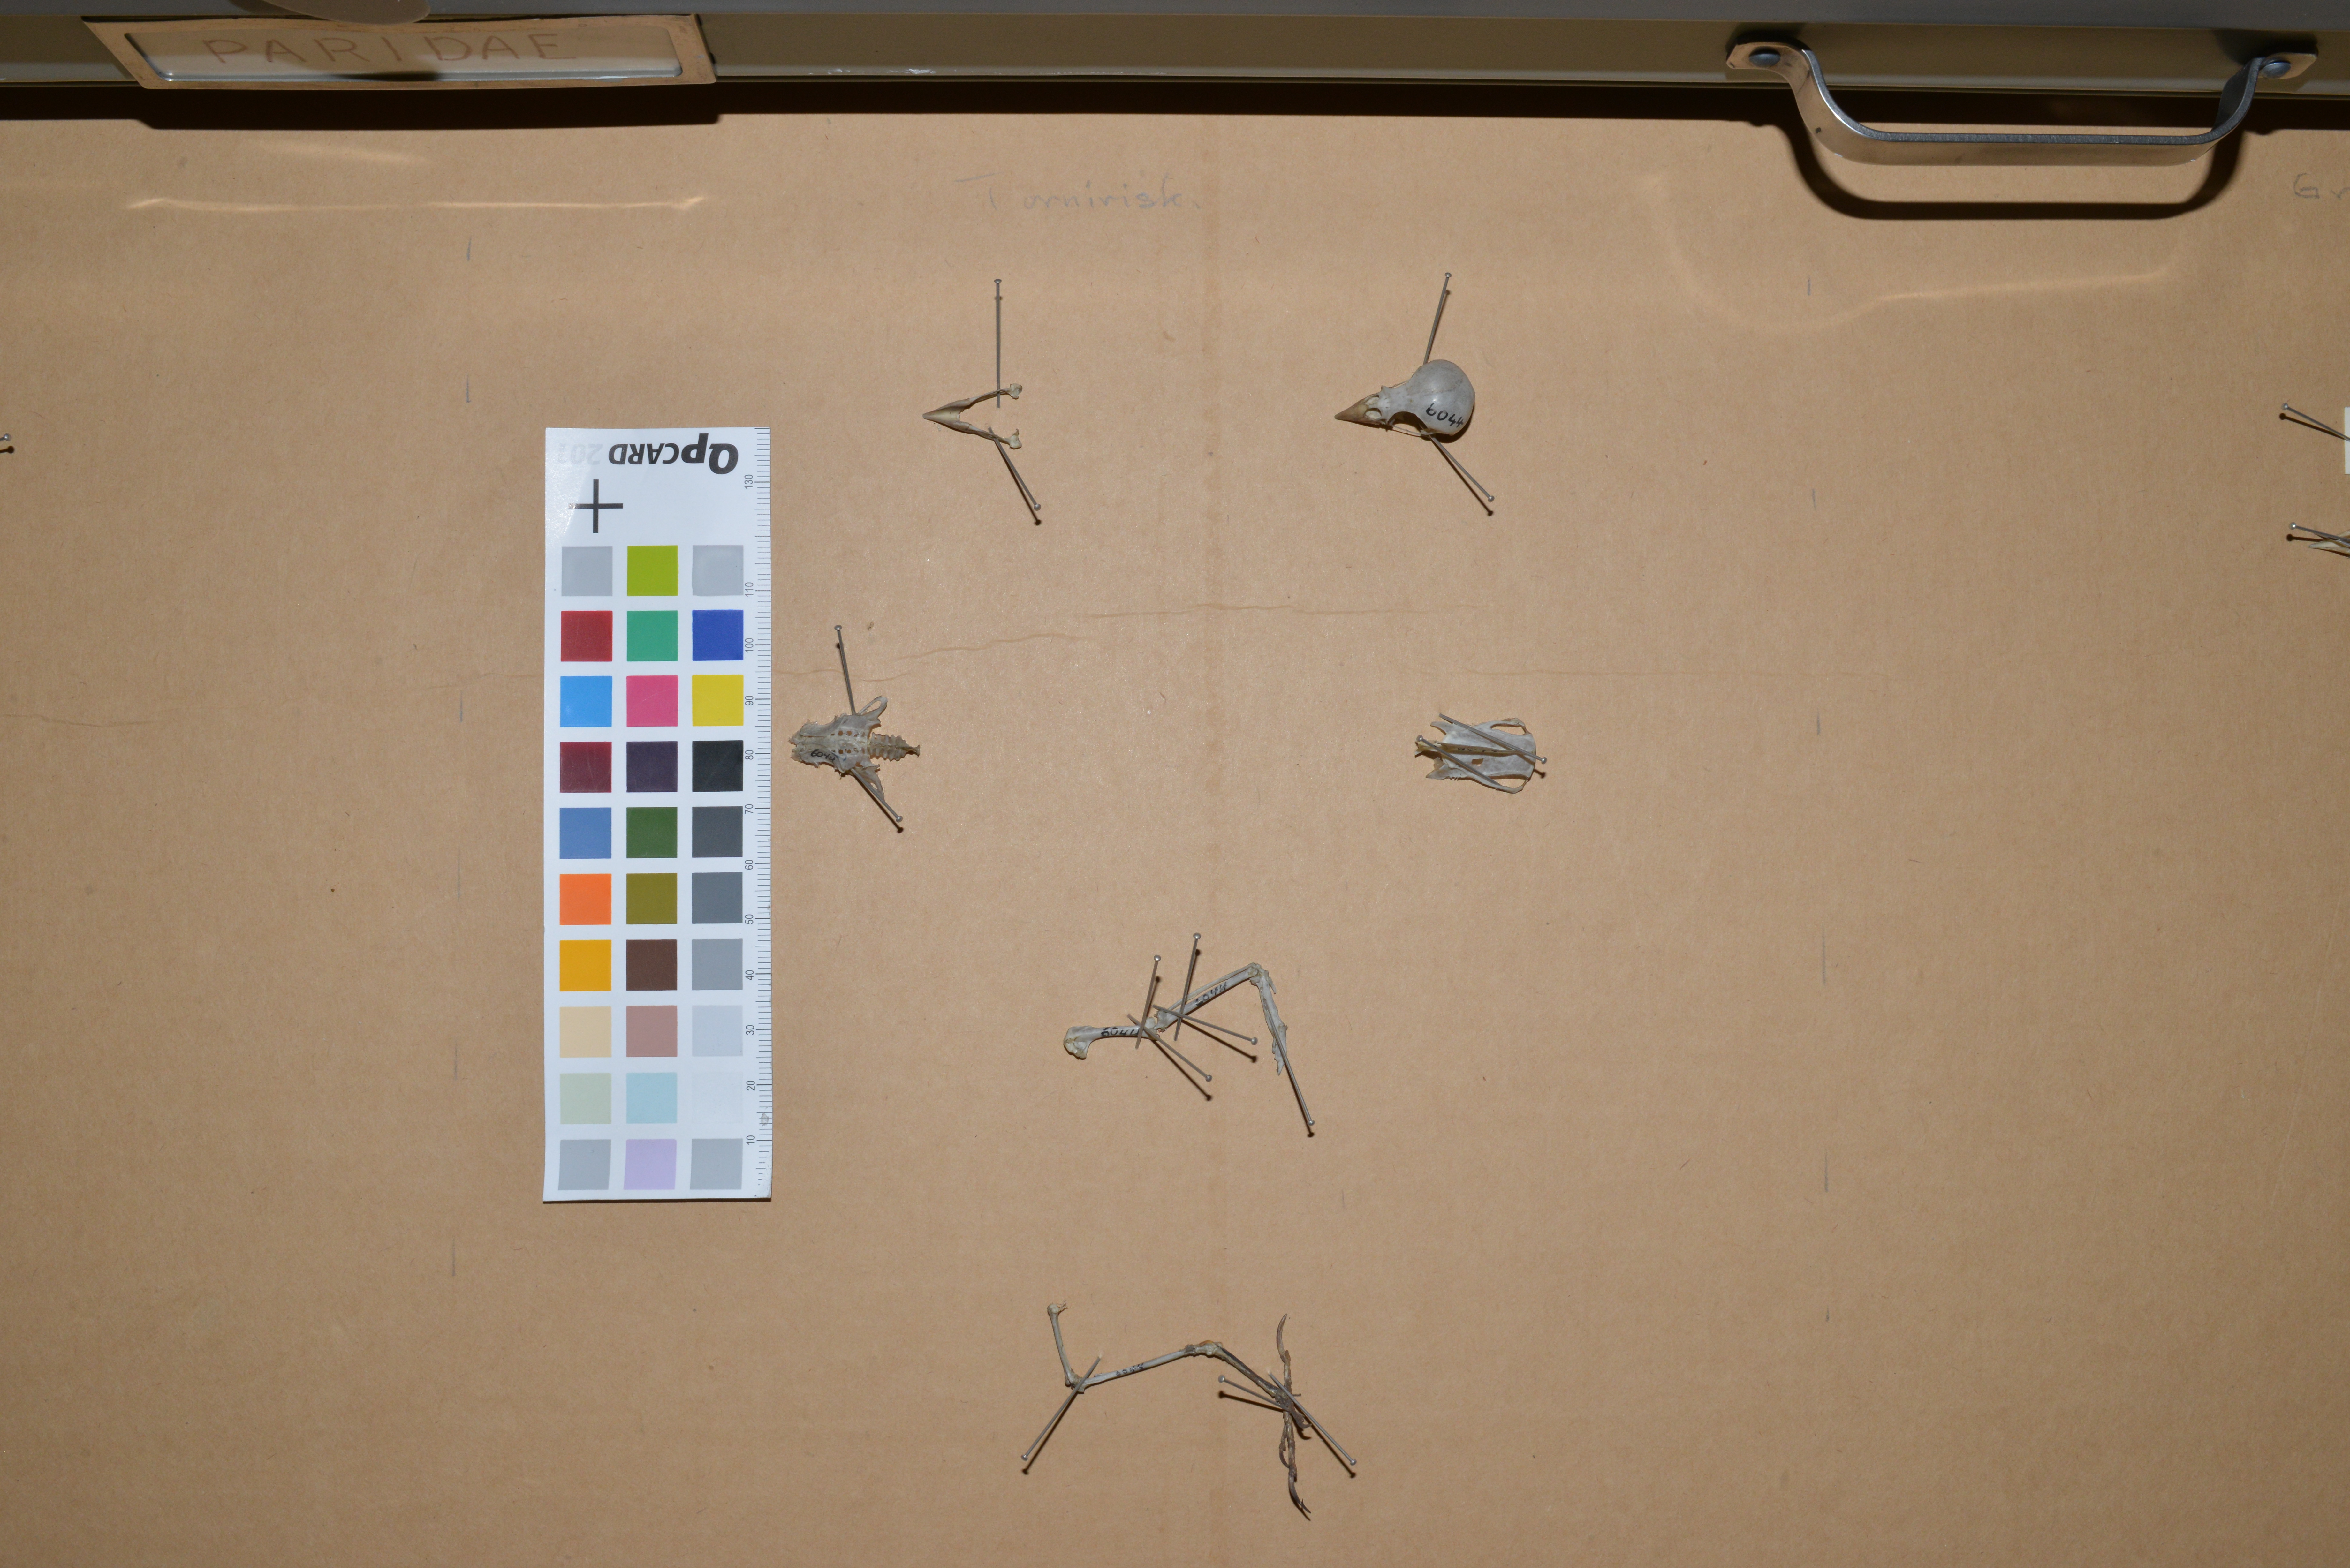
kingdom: Animalia
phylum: Chordata
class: Aves
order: Passeriformes
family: Fringillidae
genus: Linaria
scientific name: Linaria cannabina
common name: Common linnet
